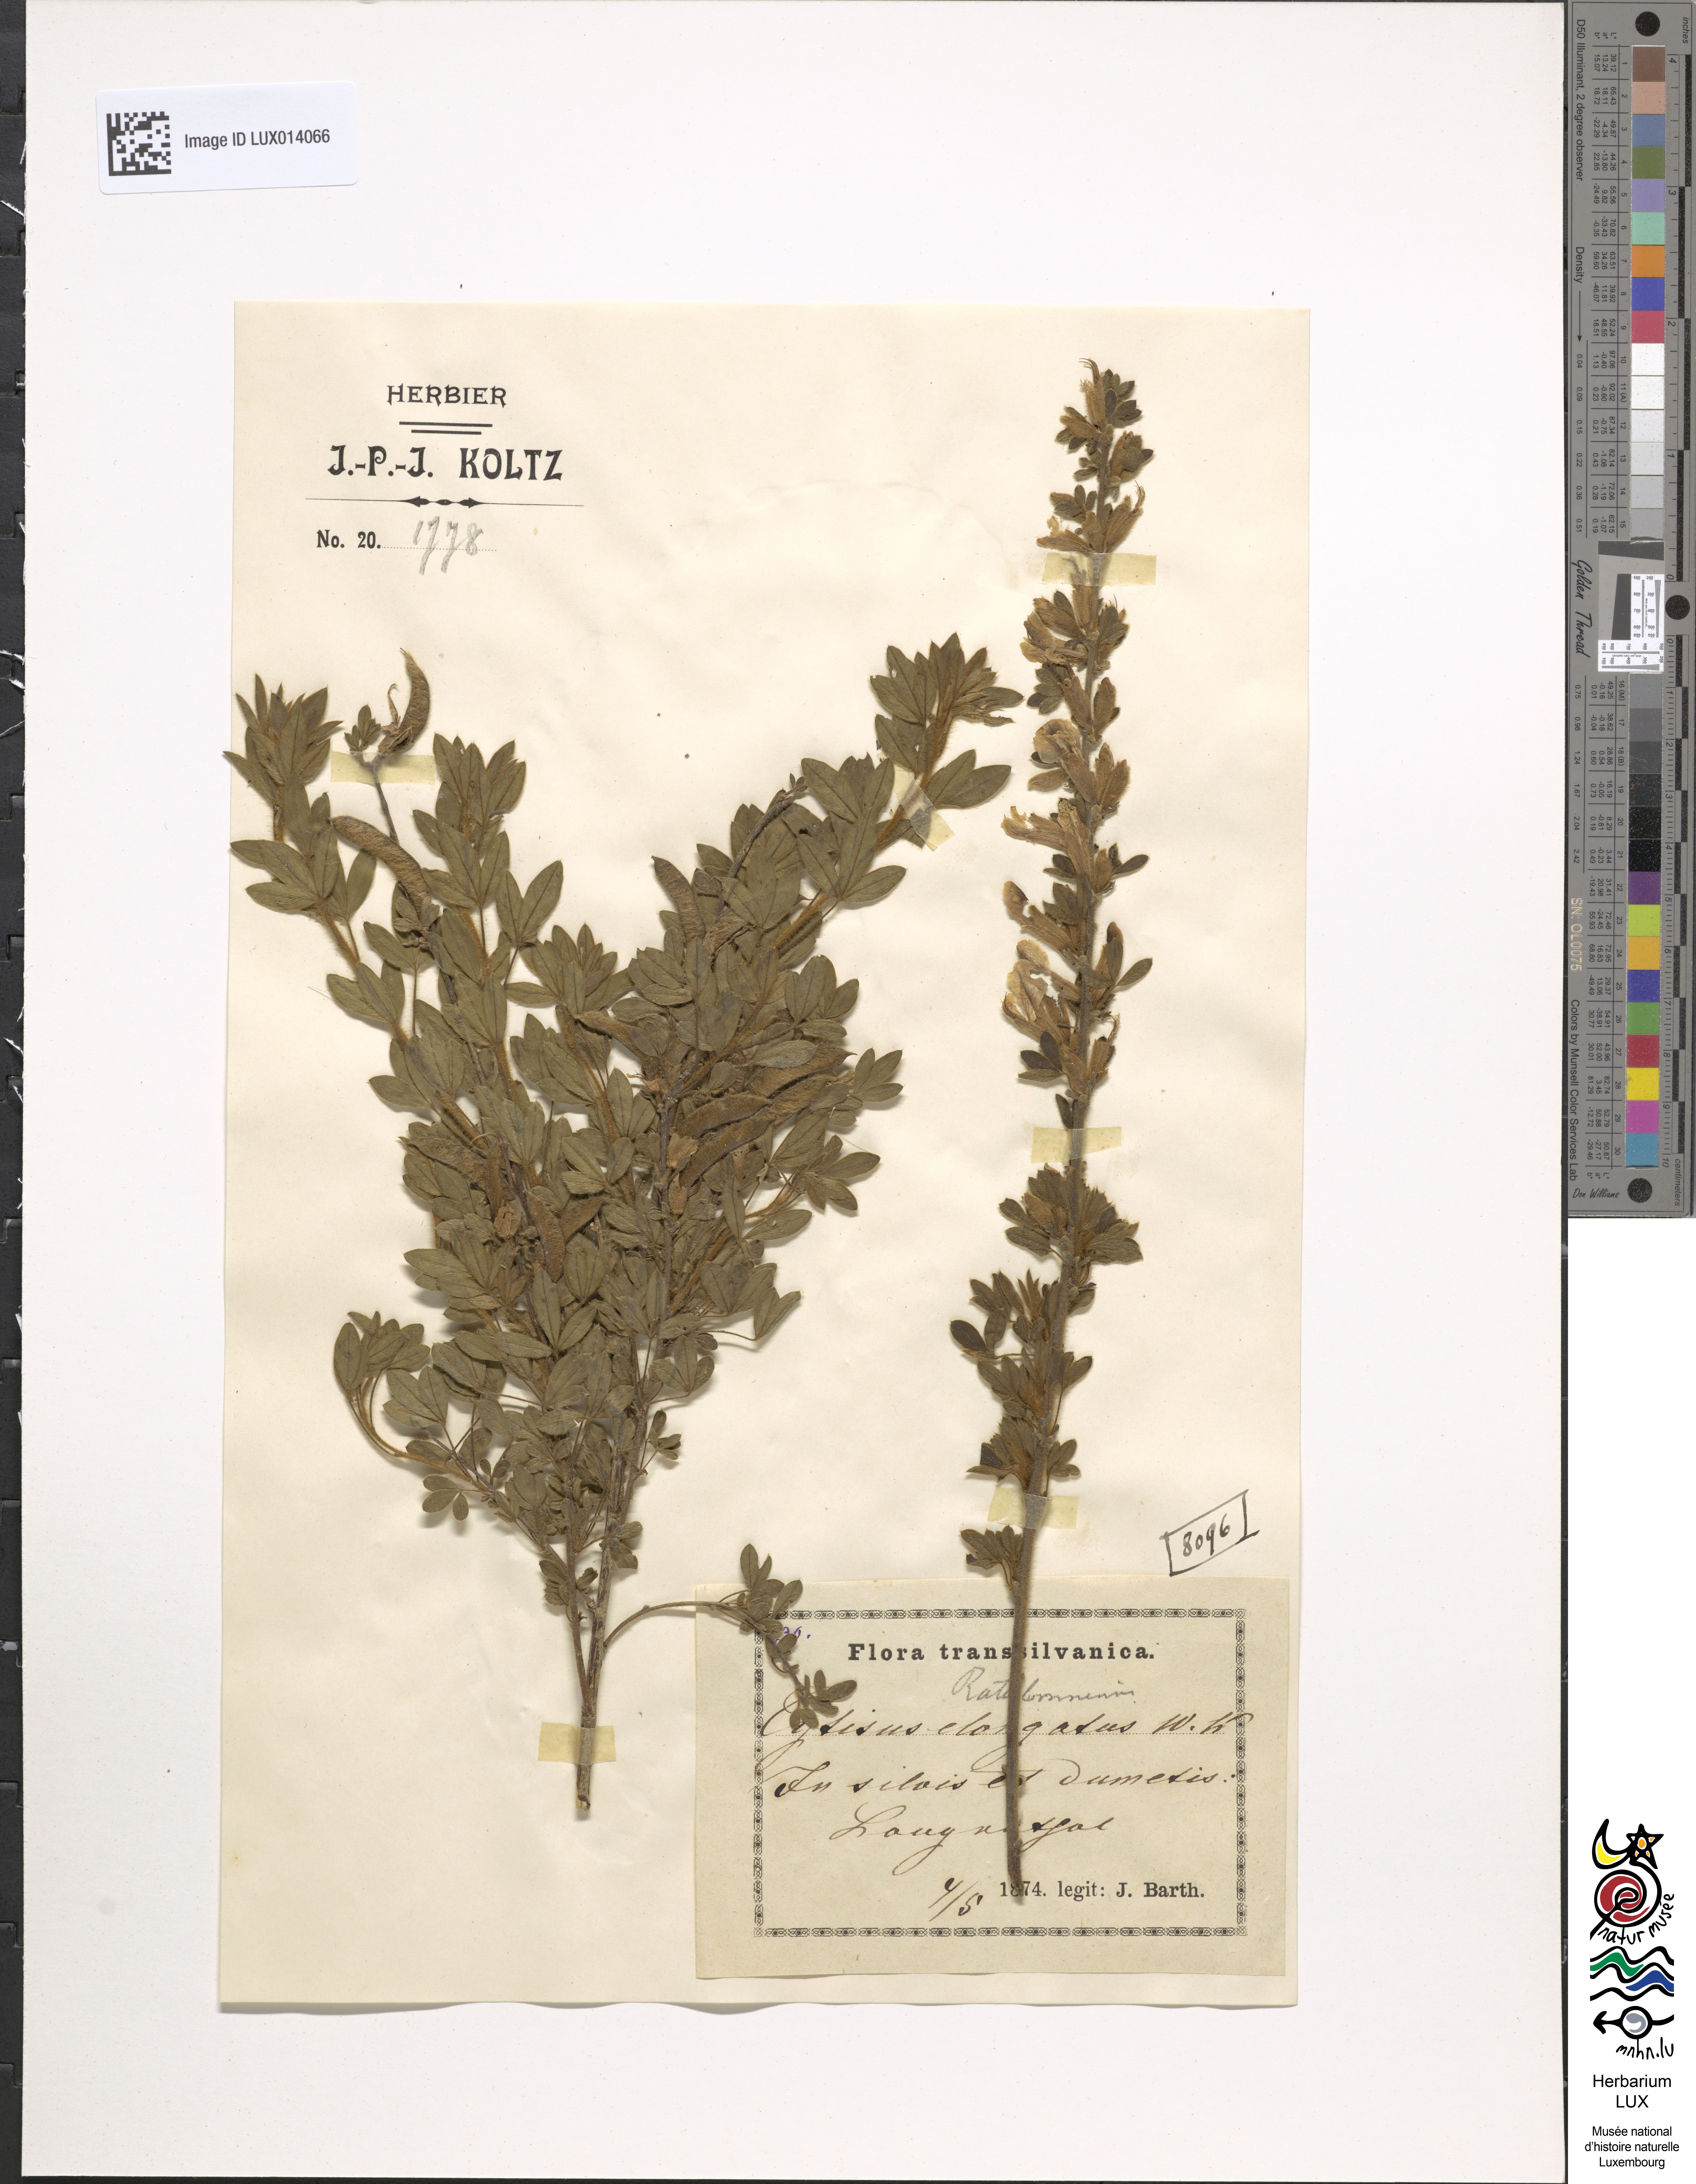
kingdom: Plantae
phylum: Tracheophyta
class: Magnoliopsida
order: Fabales
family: Fabaceae
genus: Chamaecytisus
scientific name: Chamaecytisus elongatus
